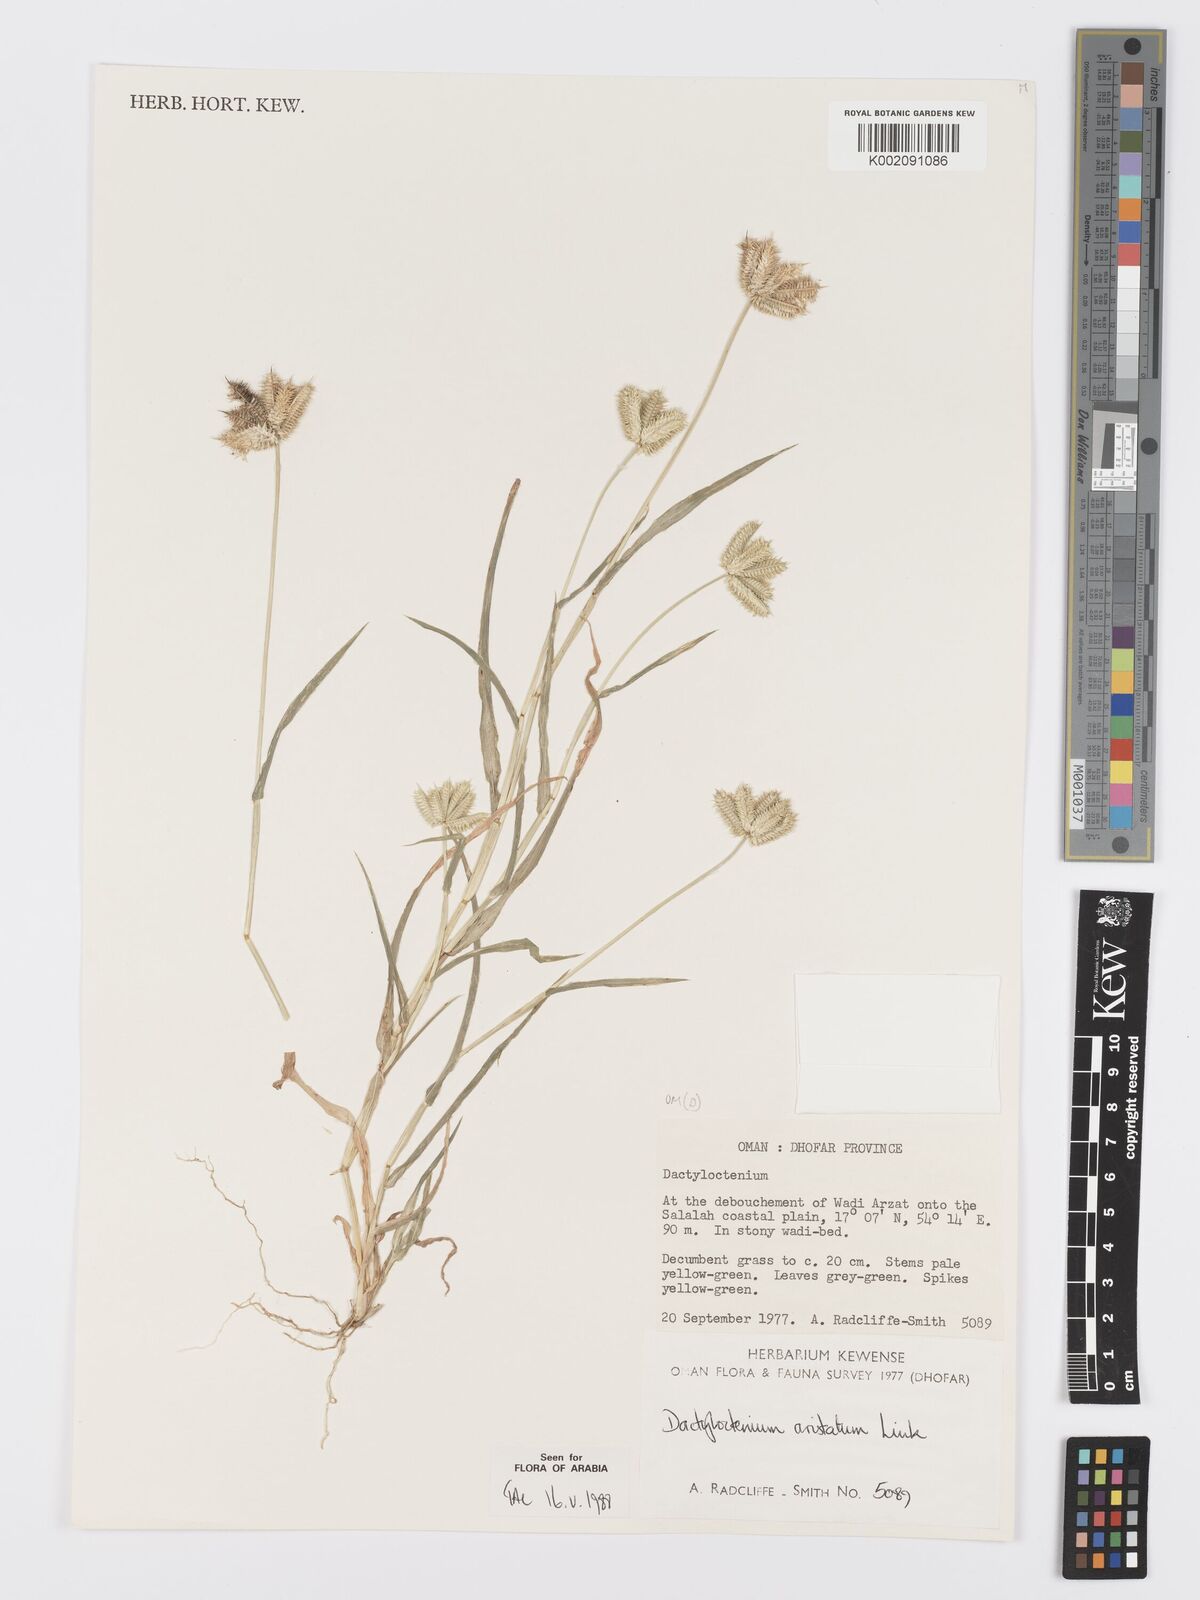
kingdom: Plantae
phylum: Tracheophyta
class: Liliopsida
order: Poales
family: Poaceae
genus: Dactyloctenium
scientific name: Dactyloctenium aristatum
